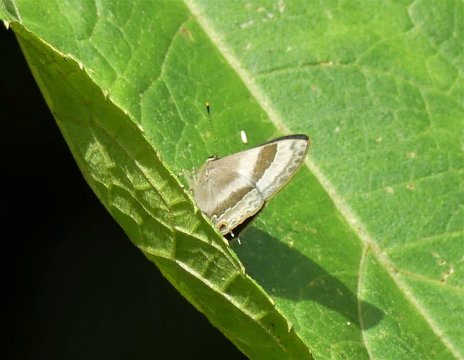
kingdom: Animalia
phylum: Arthropoda
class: Insecta
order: Lepidoptera
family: Lycaenidae
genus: Arzecla
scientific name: Arzecla arza
